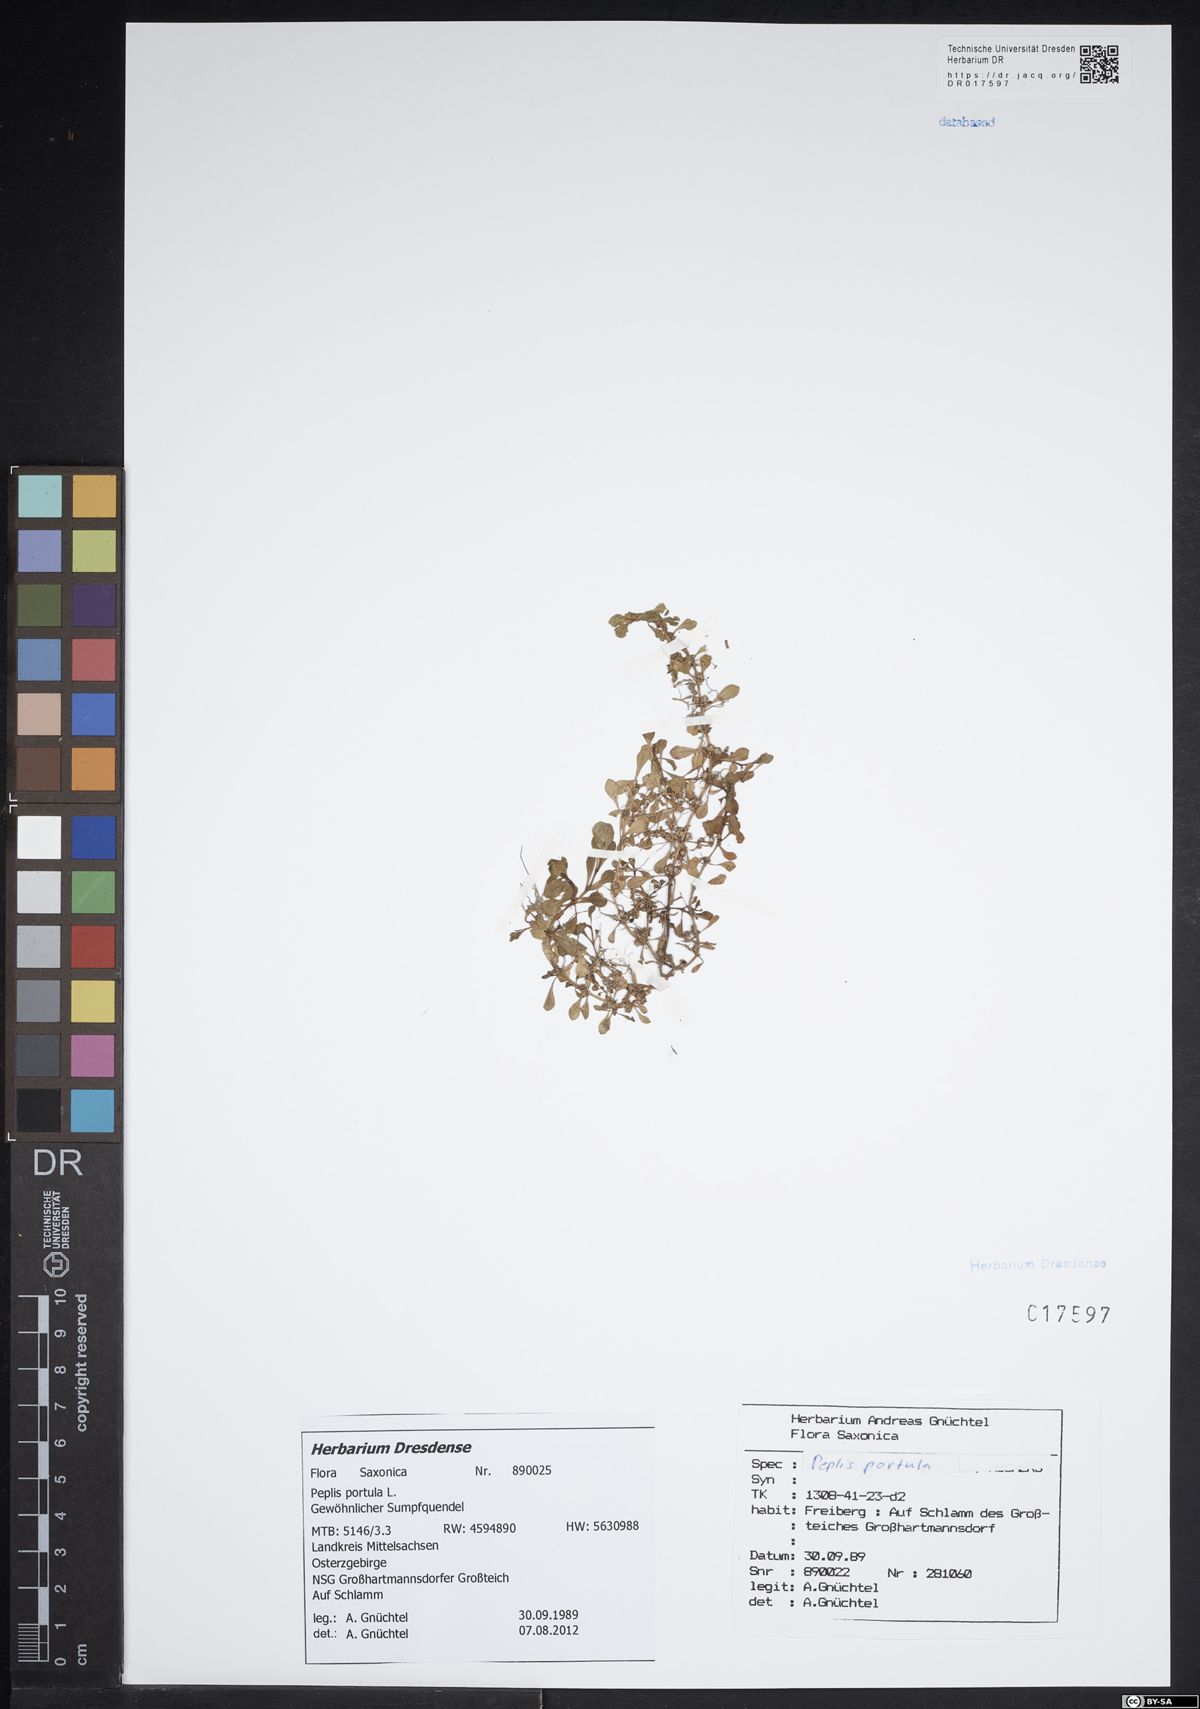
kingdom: Plantae
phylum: Tracheophyta
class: Magnoliopsida
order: Myrtales
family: Lythraceae
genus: Lythrum
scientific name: Lythrum portula
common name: Water purslane
